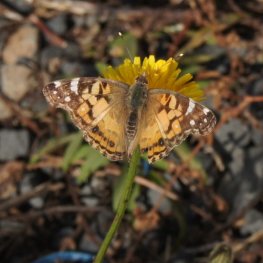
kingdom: Animalia
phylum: Arthropoda
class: Insecta
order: Lepidoptera
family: Nymphalidae
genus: Vanessa
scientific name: Vanessa virginiensis
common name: American Lady
